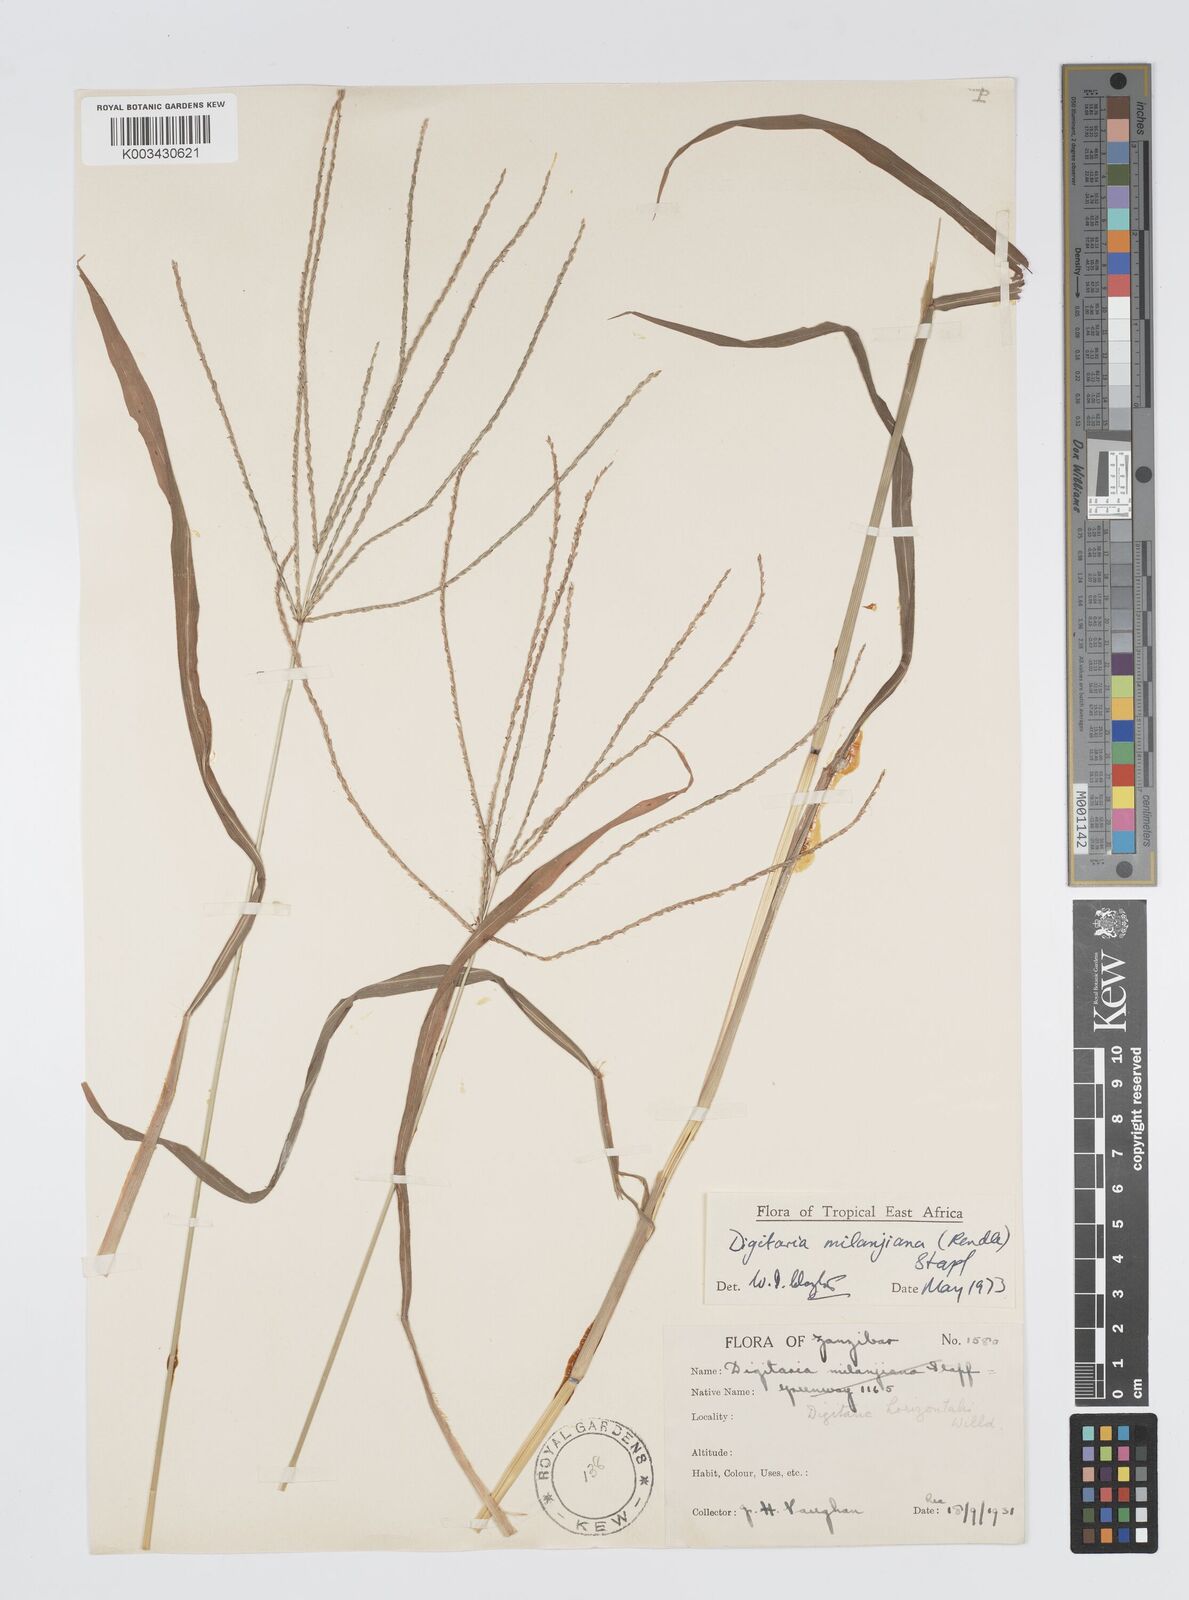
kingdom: Plantae
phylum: Tracheophyta
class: Liliopsida
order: Poales
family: Poaceae
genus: Digitaria
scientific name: Digitaria milanjiana
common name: Madagascar crabgrass
